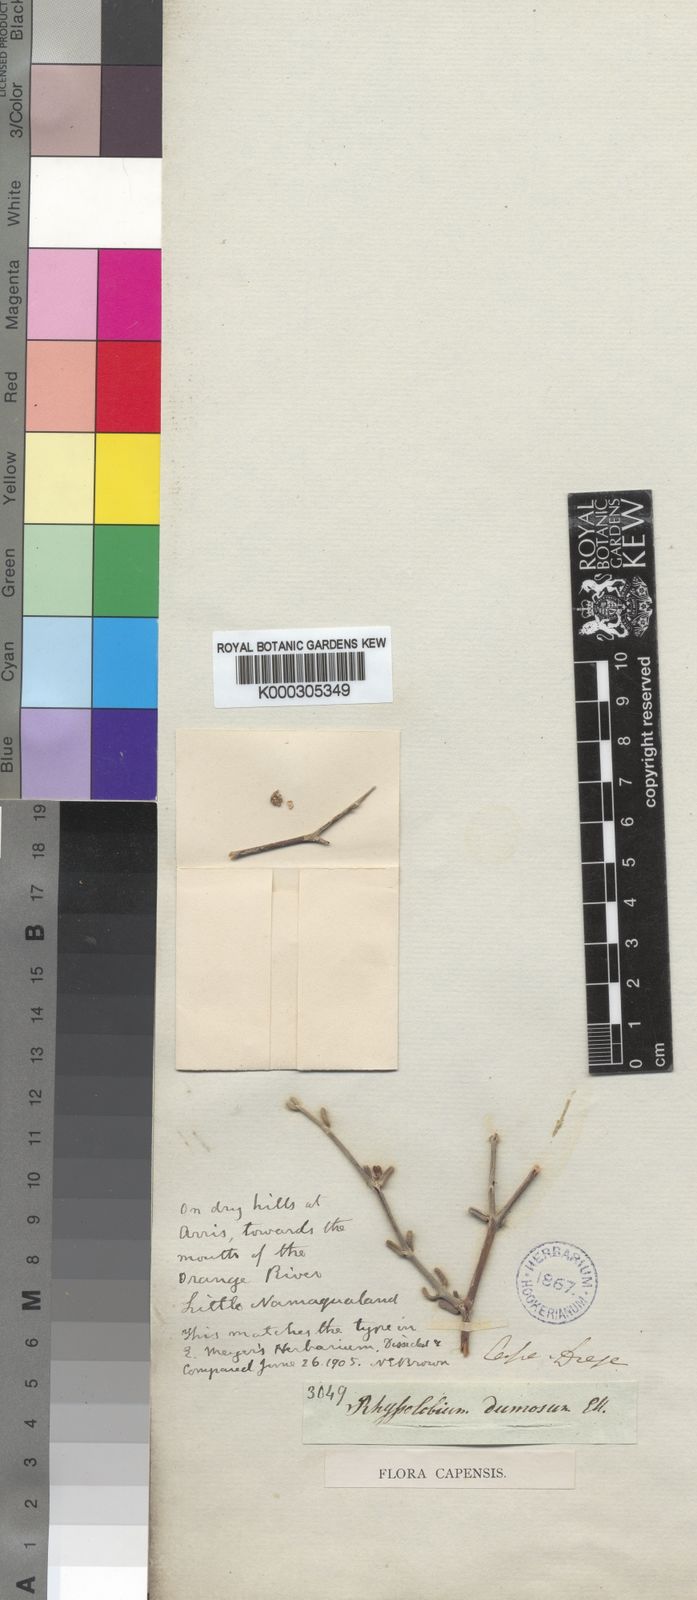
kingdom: Plantae
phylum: Tracheophyta
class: Magnoliopsida
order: Gentianales
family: Apocynaceae
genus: Rhyssolobium
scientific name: Rhyssolobium dumosum
